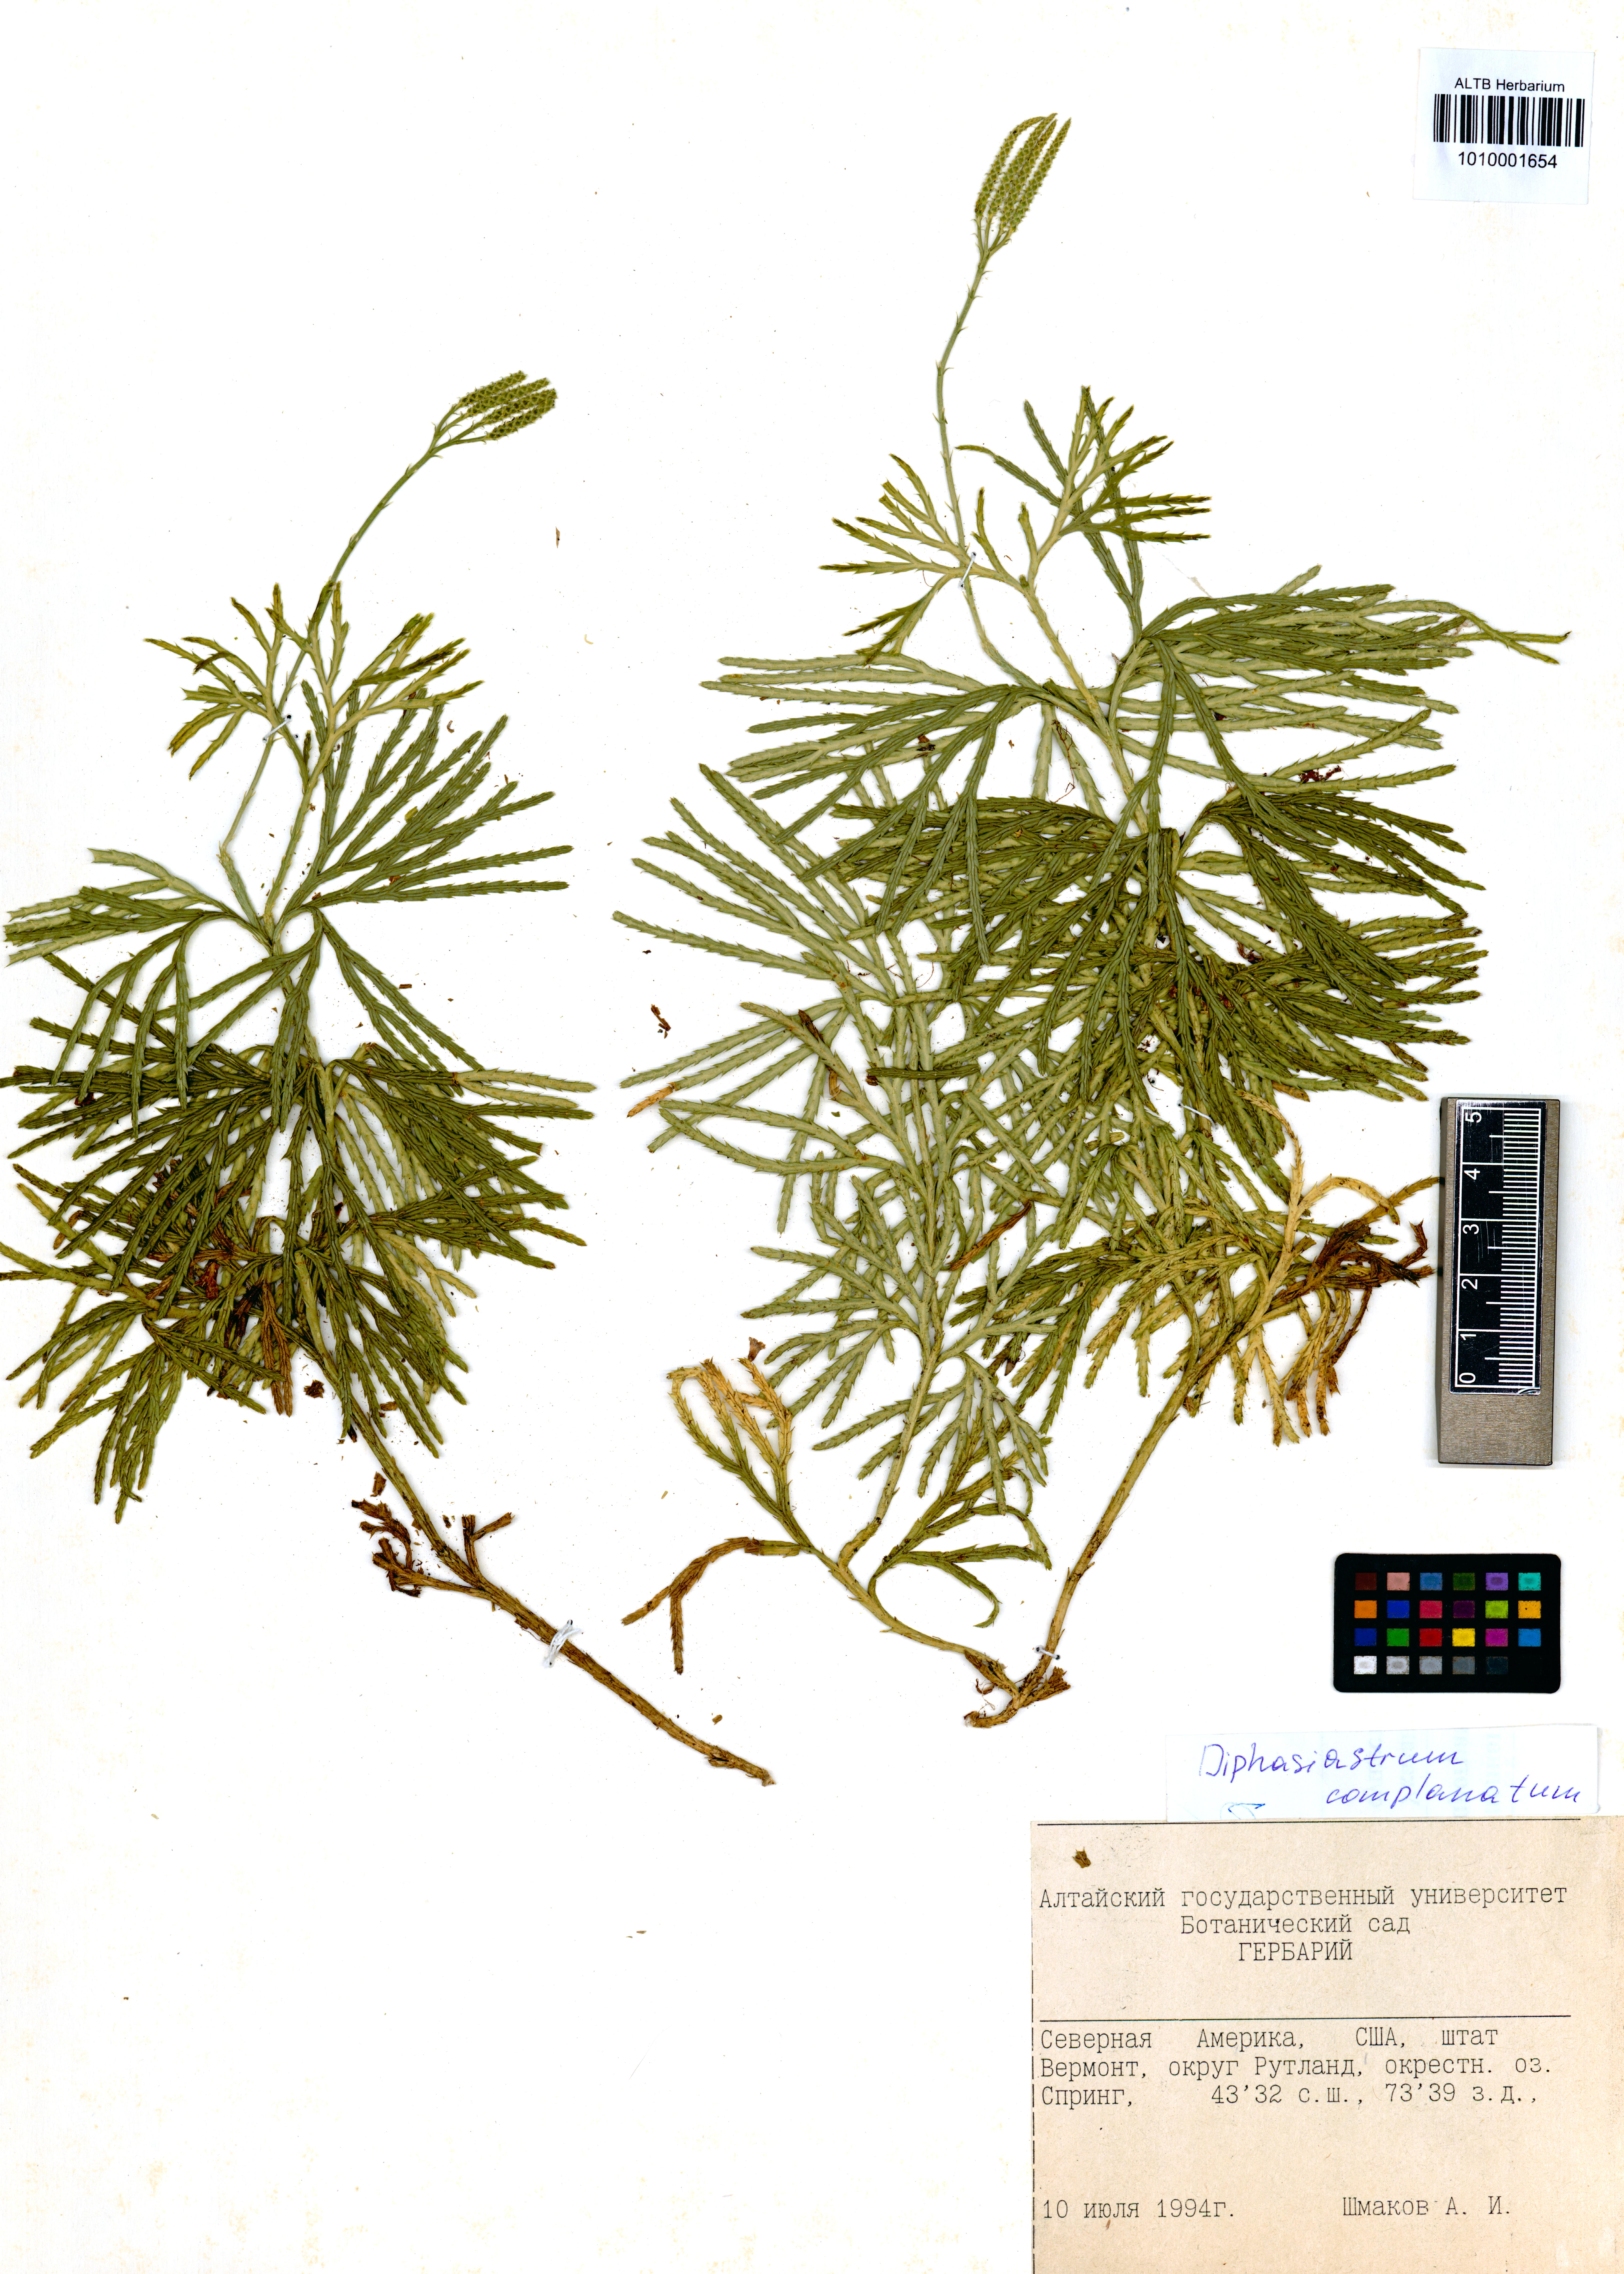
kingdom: Plantae
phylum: Tracheophyta
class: Lycopodiopsida
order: Lycopodiales
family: Lycopodiaceae
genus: Diphasiastrum
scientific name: Diphasiastrum complanatum
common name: Northern running-pine
